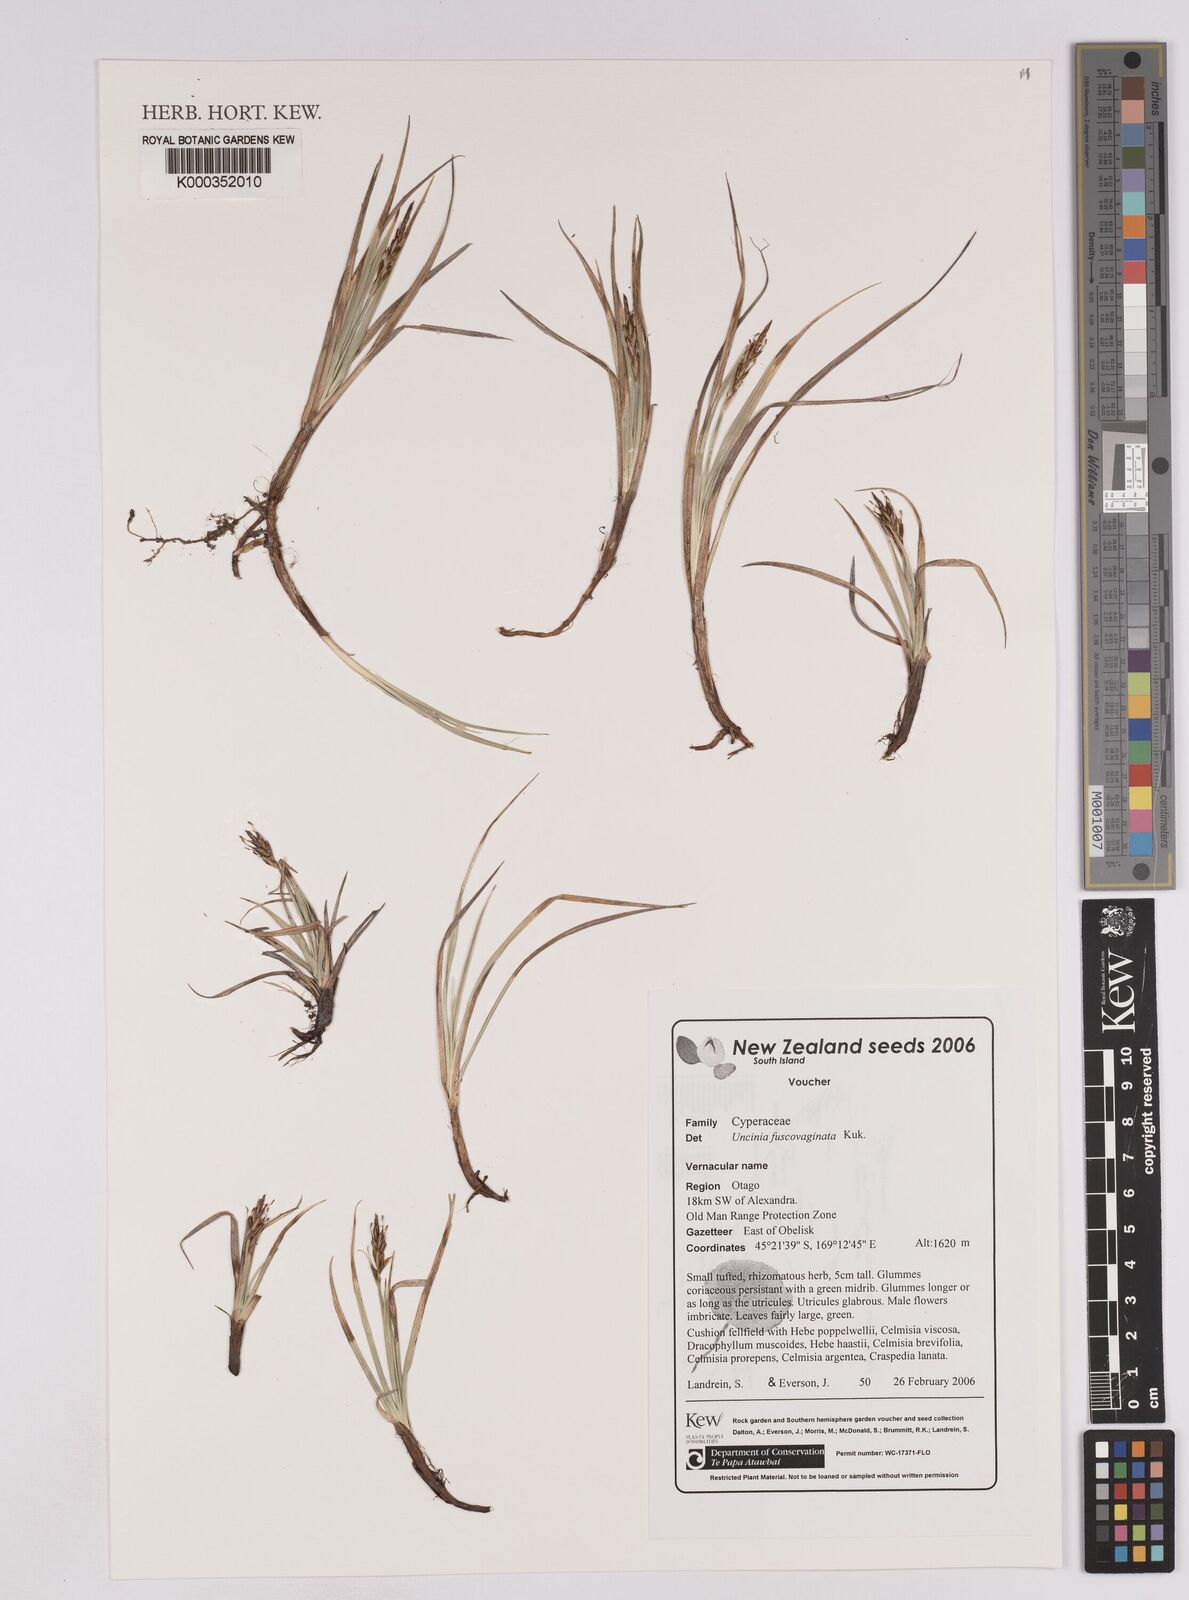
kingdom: Plantae
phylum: Tracheophyta
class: Liliopsida
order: Poales
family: Cyperaceae
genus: Carex
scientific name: Carex penalpina
